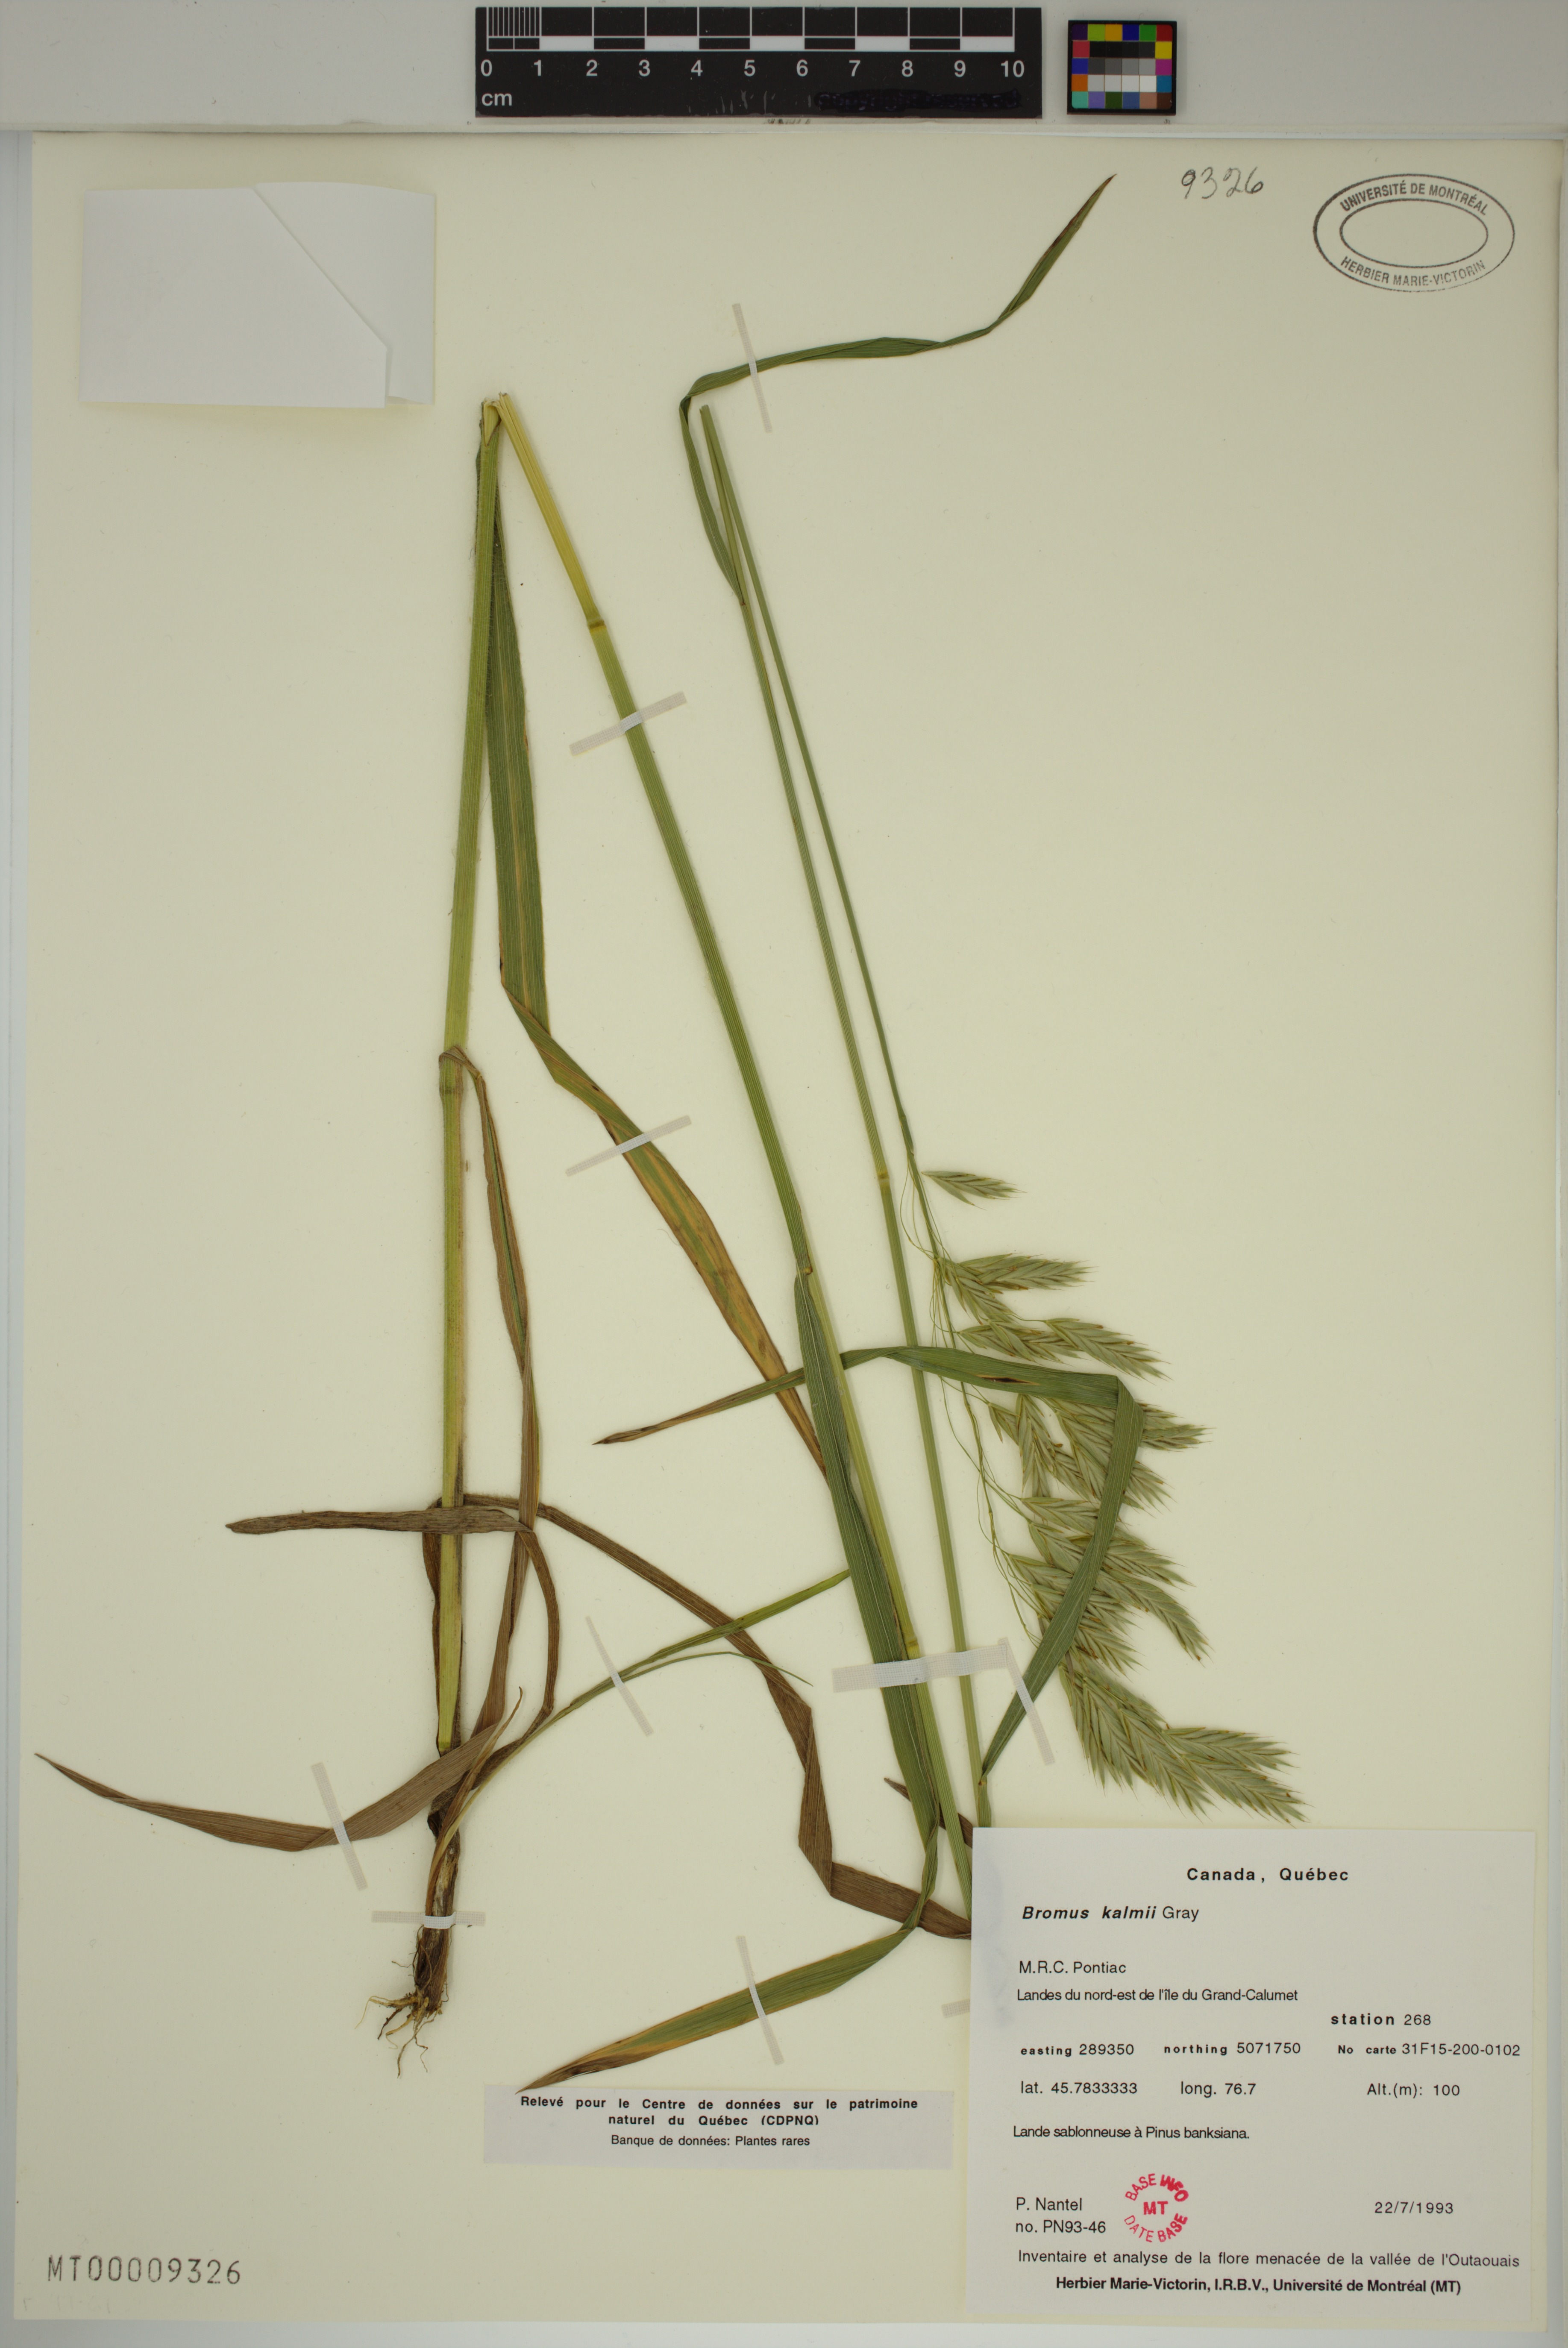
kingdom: Plantae
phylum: Tracheophyta
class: Liliopsida
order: Poales
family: Poaceae
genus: Bromus
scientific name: Bromus kalmii
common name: Kalm brome
